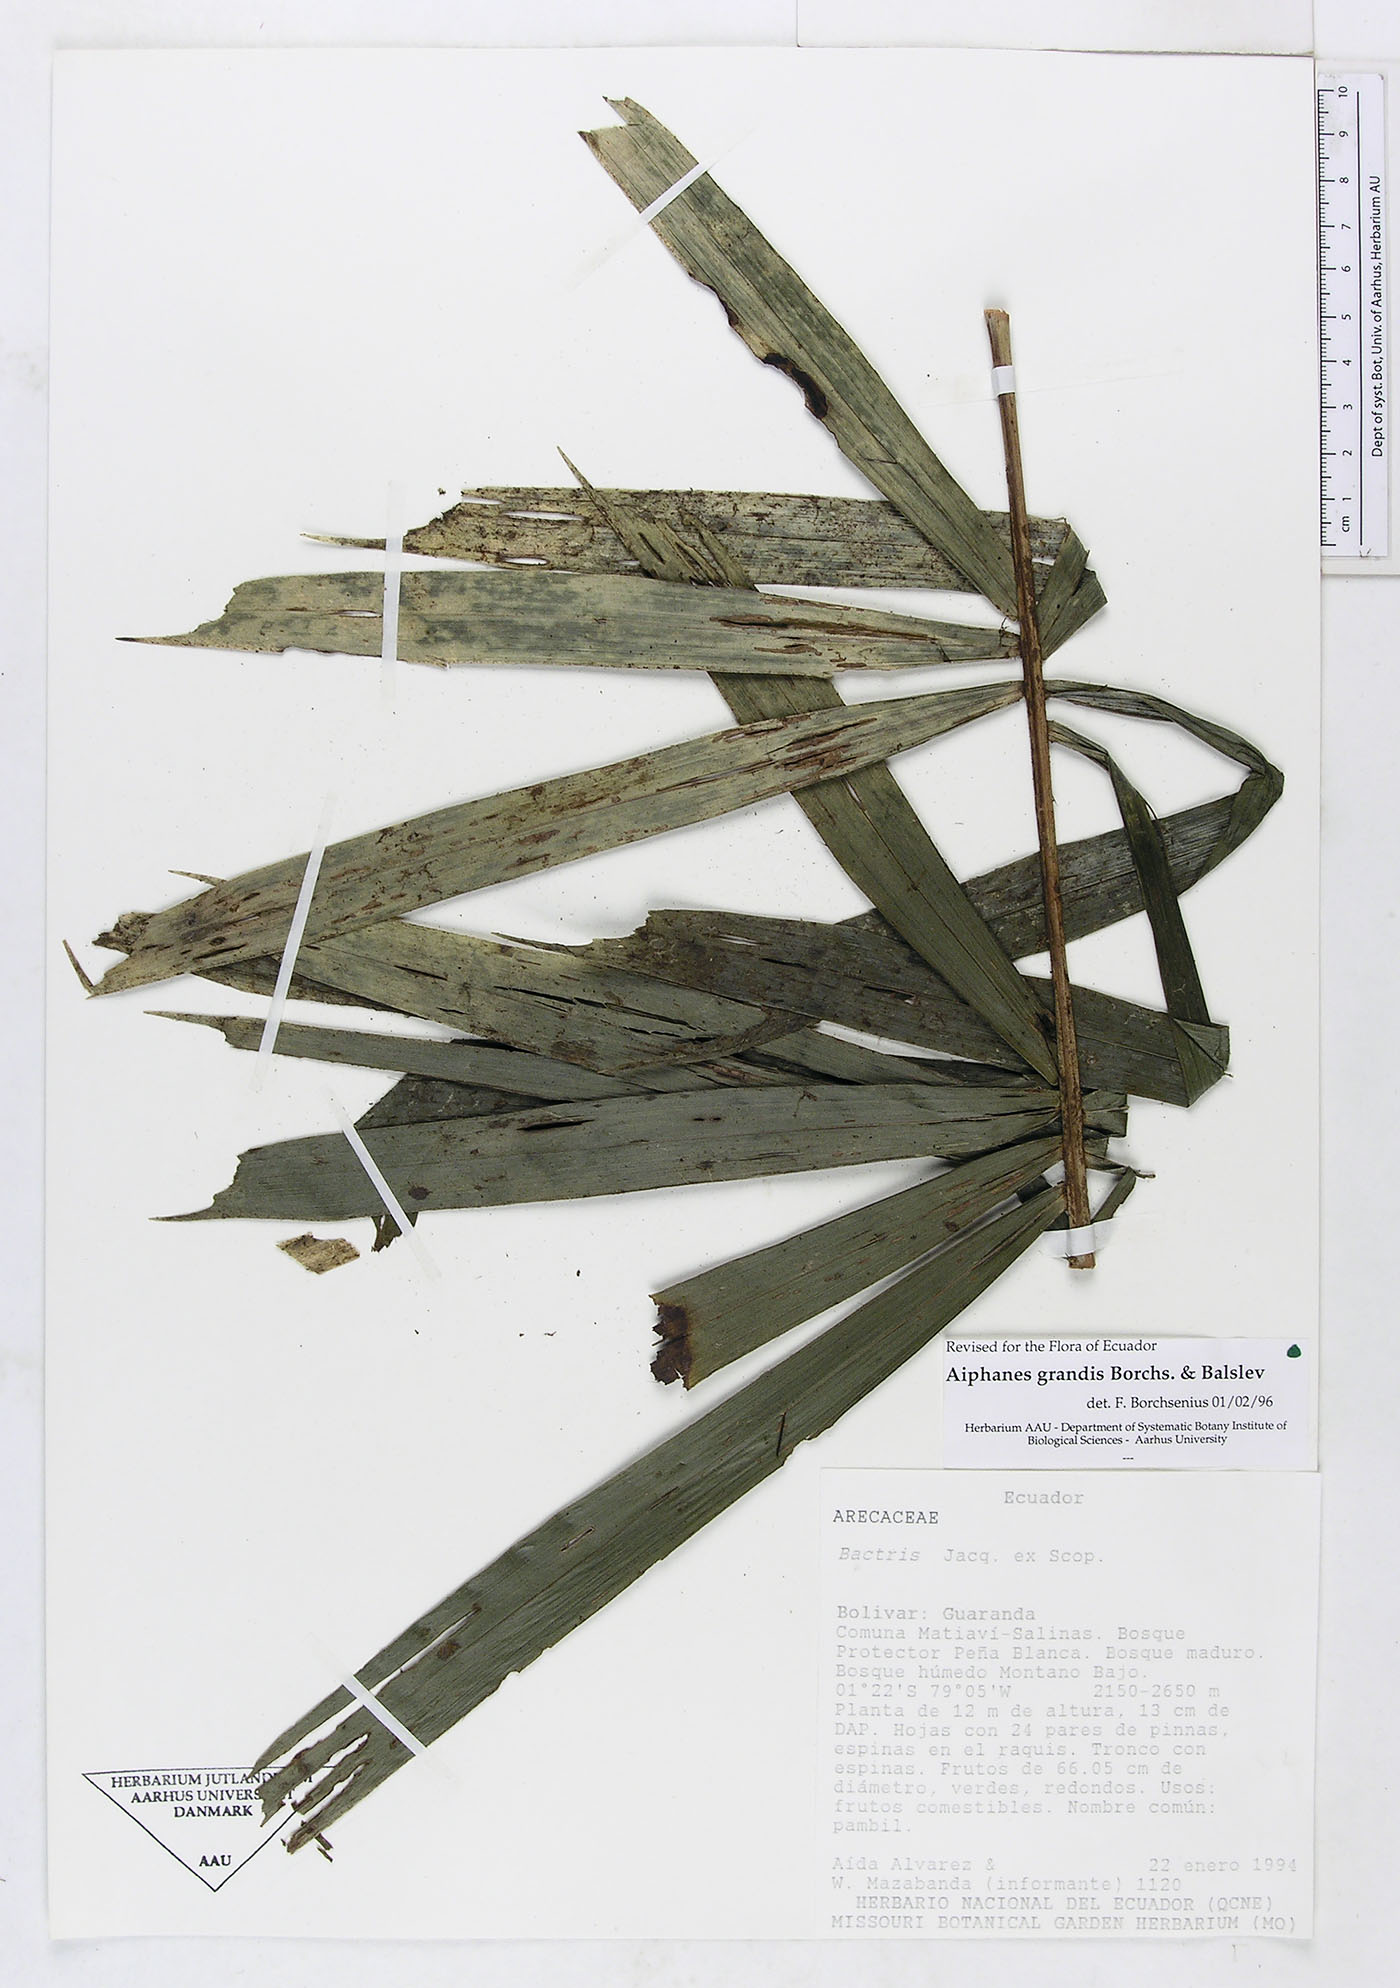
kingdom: Plantae
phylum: Tracheophyta
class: Liliopsida
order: Arecales
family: Arecaceae
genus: Aiphanes
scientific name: Aiphanes grandis
